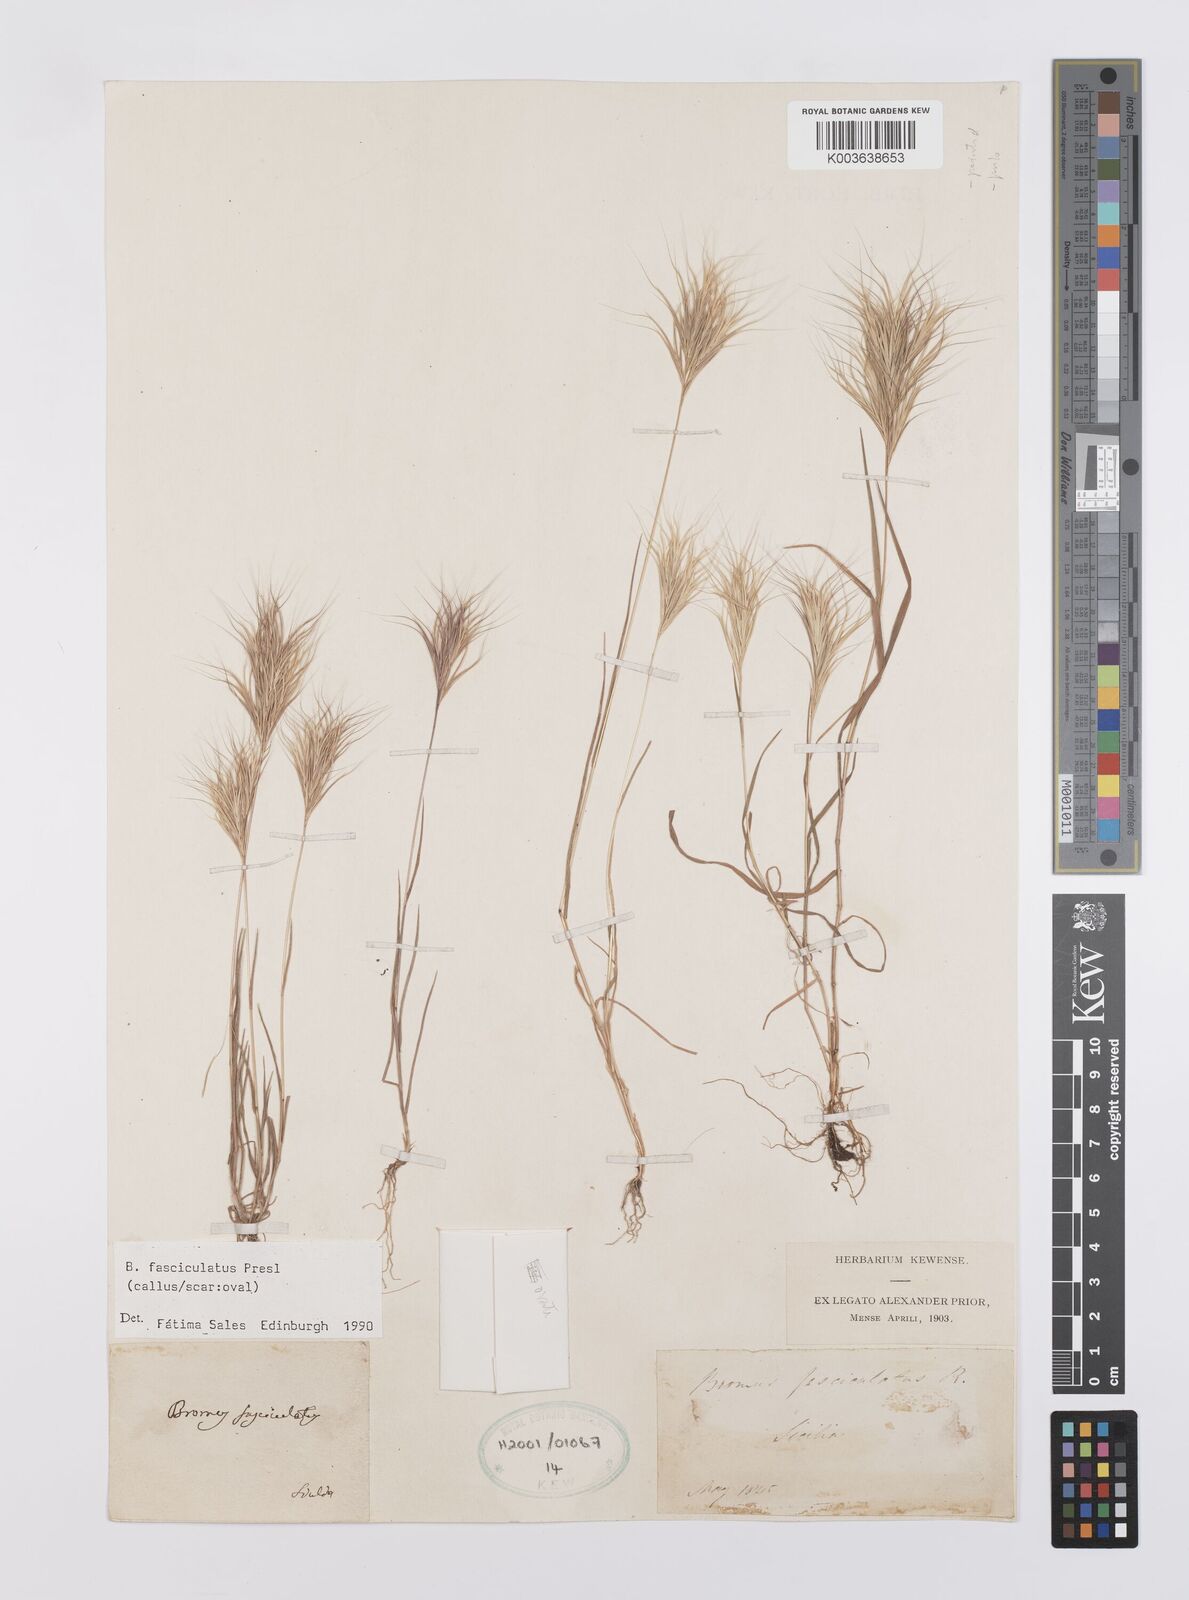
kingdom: Plantae
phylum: Tracheophyta
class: Liliopsida
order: Poales
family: Poaceae
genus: Bromus
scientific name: Bromus fasciculatus
